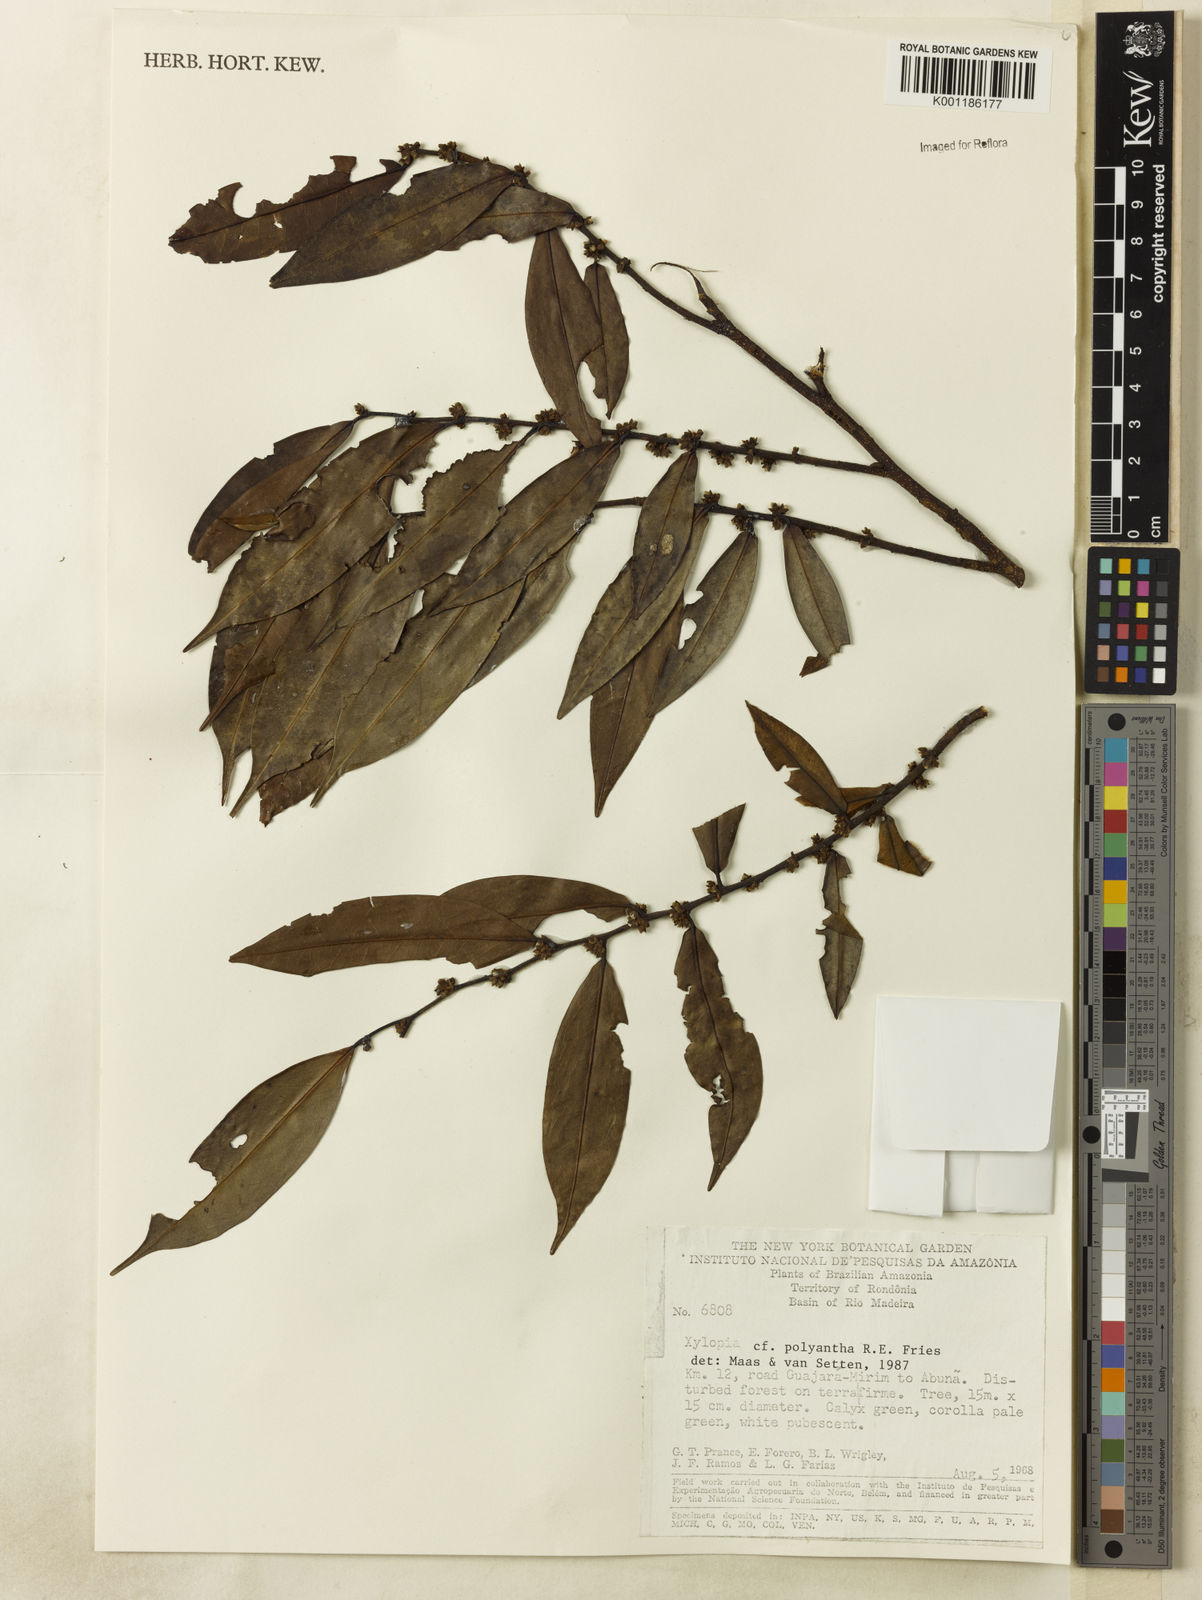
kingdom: Plantae
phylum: Tracheophyta
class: Magnoliopsida
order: Magnoliales
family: Annonaceae
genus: Xylopia
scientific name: Xylopia polyantha
